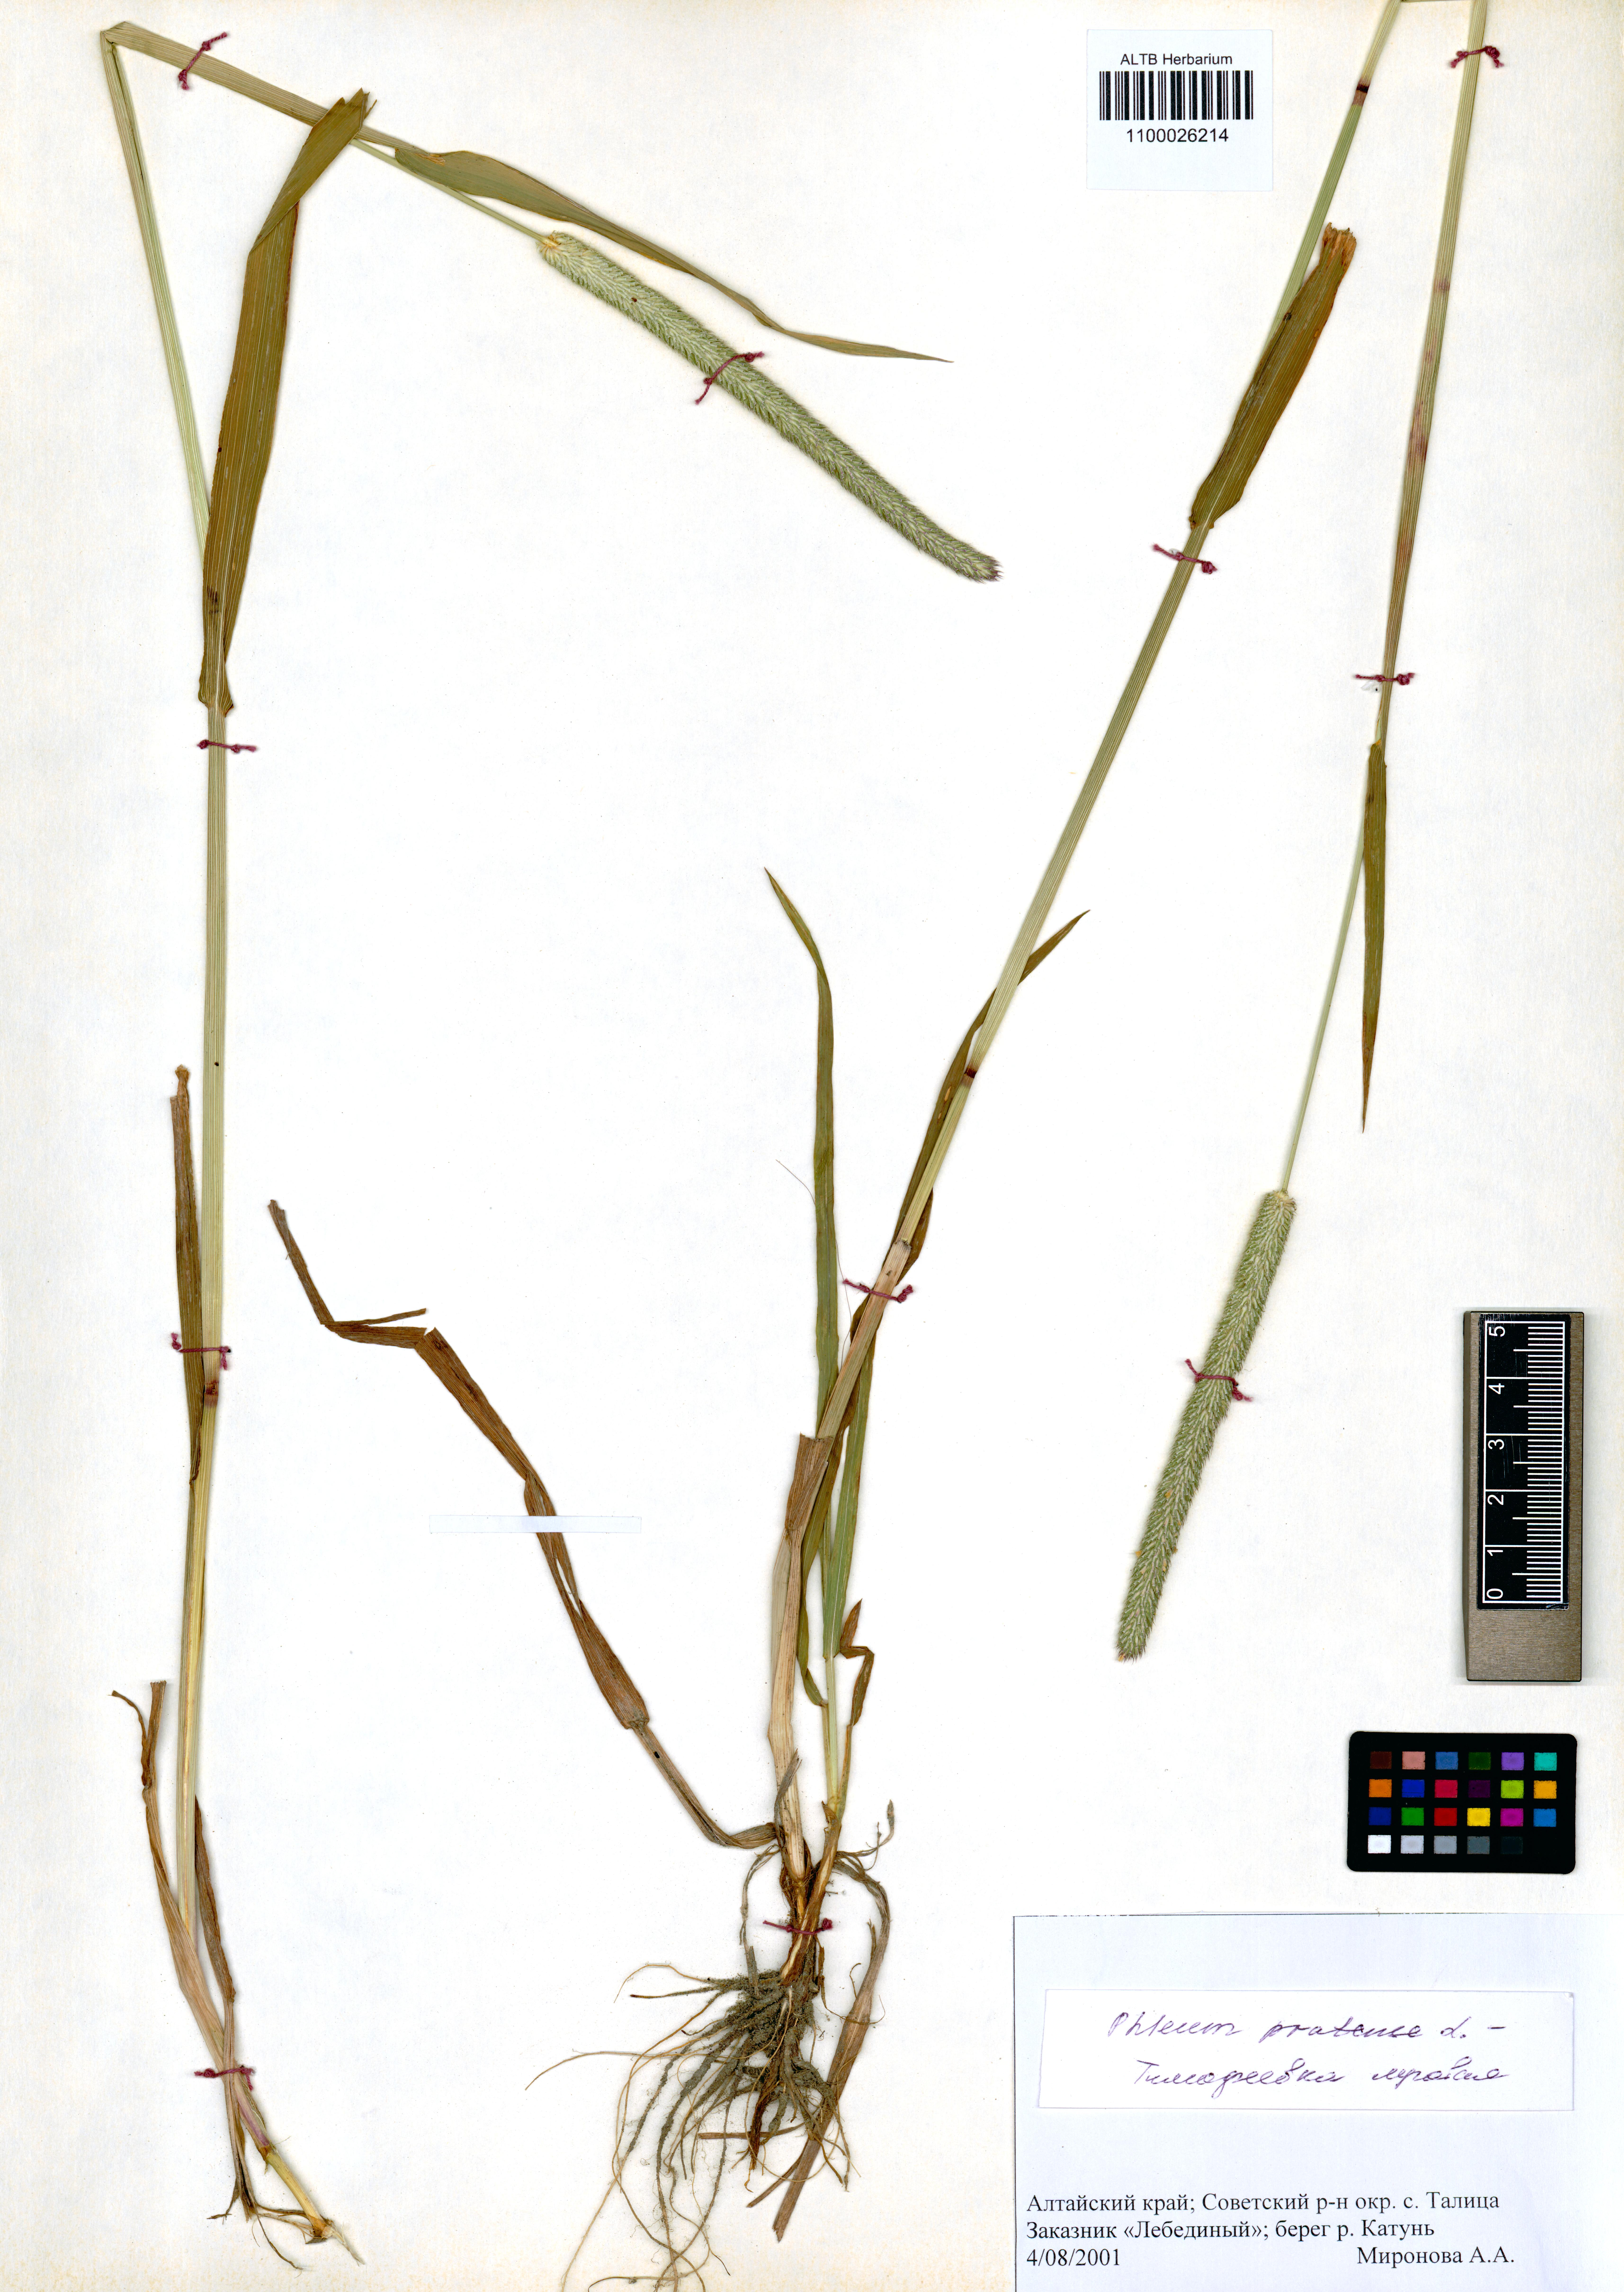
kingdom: Plantae
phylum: Tracheophyta
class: Liliopsida
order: Poales
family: Poaceae
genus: Phleum
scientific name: Phleum pratense
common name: Timothy grass
